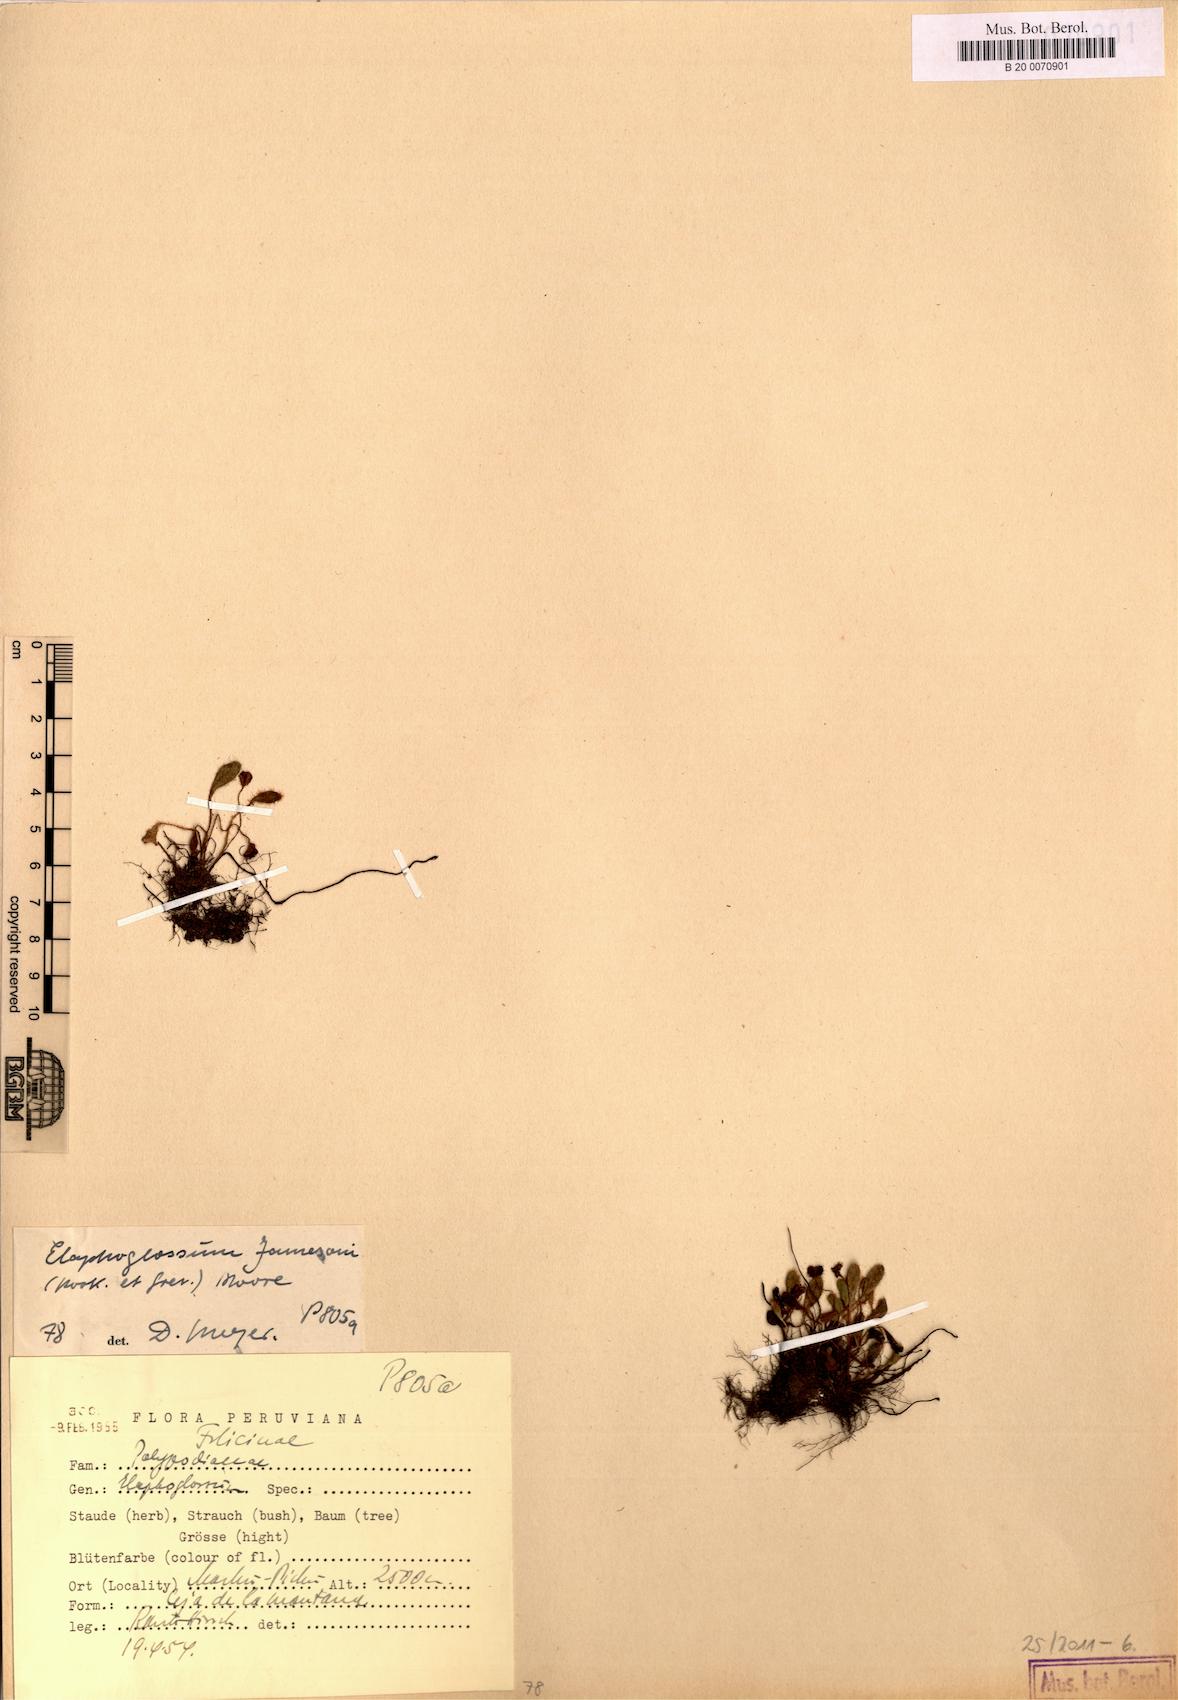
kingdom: Plantae
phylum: Tracheophyta
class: Polypodiopsida
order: Polypodiales
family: Dryopteridaceae
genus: Elaphoglossum
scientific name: Elaphoglossum piloselloides
